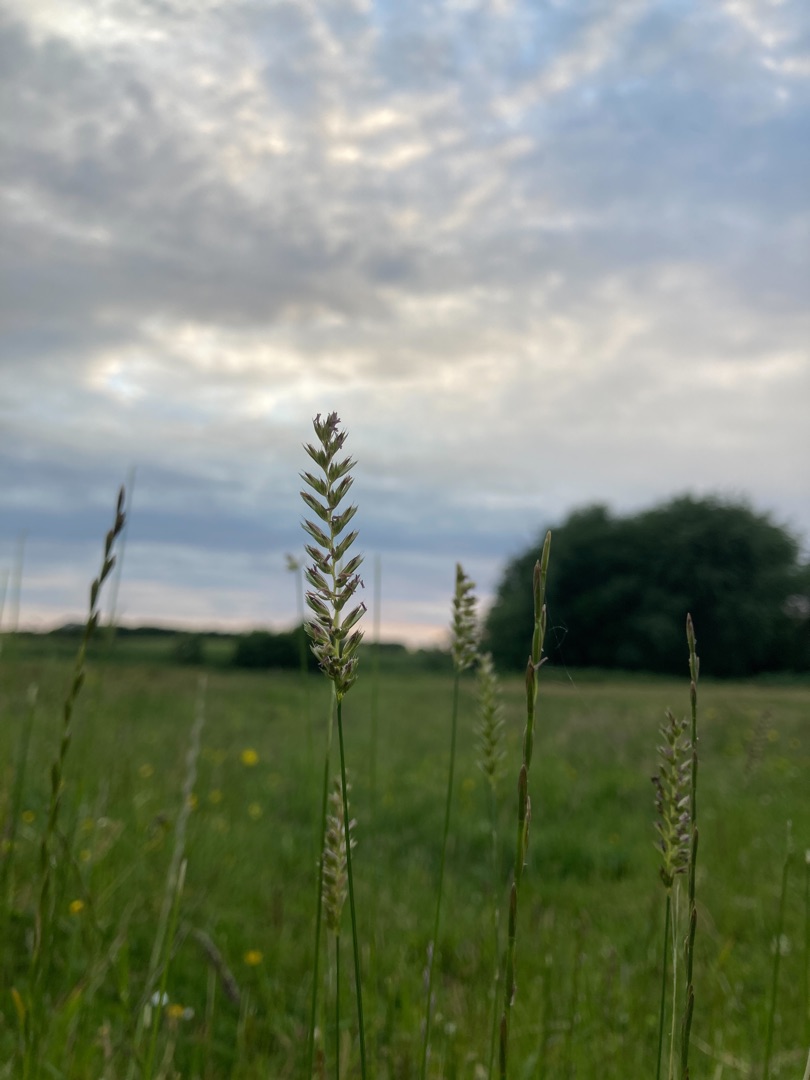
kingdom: Plantae
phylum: Tracheophyta
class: Liliopsida
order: Poales
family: Poaceae
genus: Cynosurus
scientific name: Cynosurus cristatus
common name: Kamgræs
